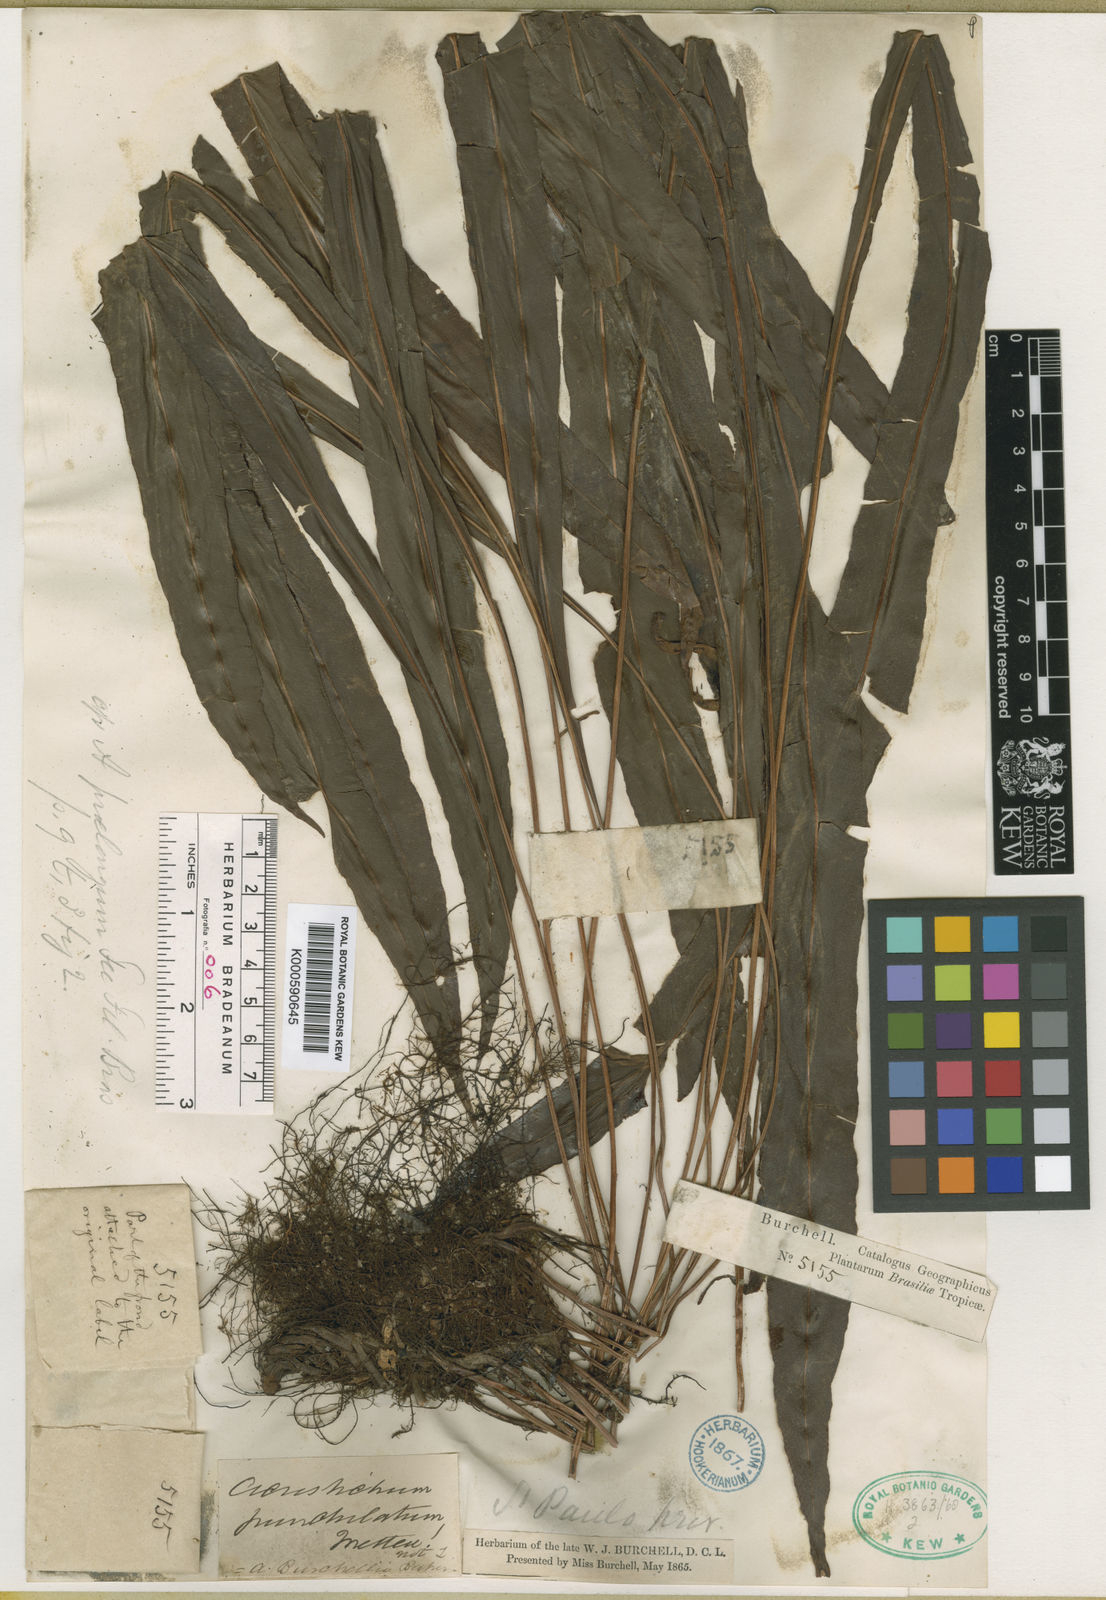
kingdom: Plantae
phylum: Tracheophyta
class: Polypodiopsida
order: Polypodiales
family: Dryopteridaceae
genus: Elaphoglossum
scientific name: Elaphoglossum burchellii
